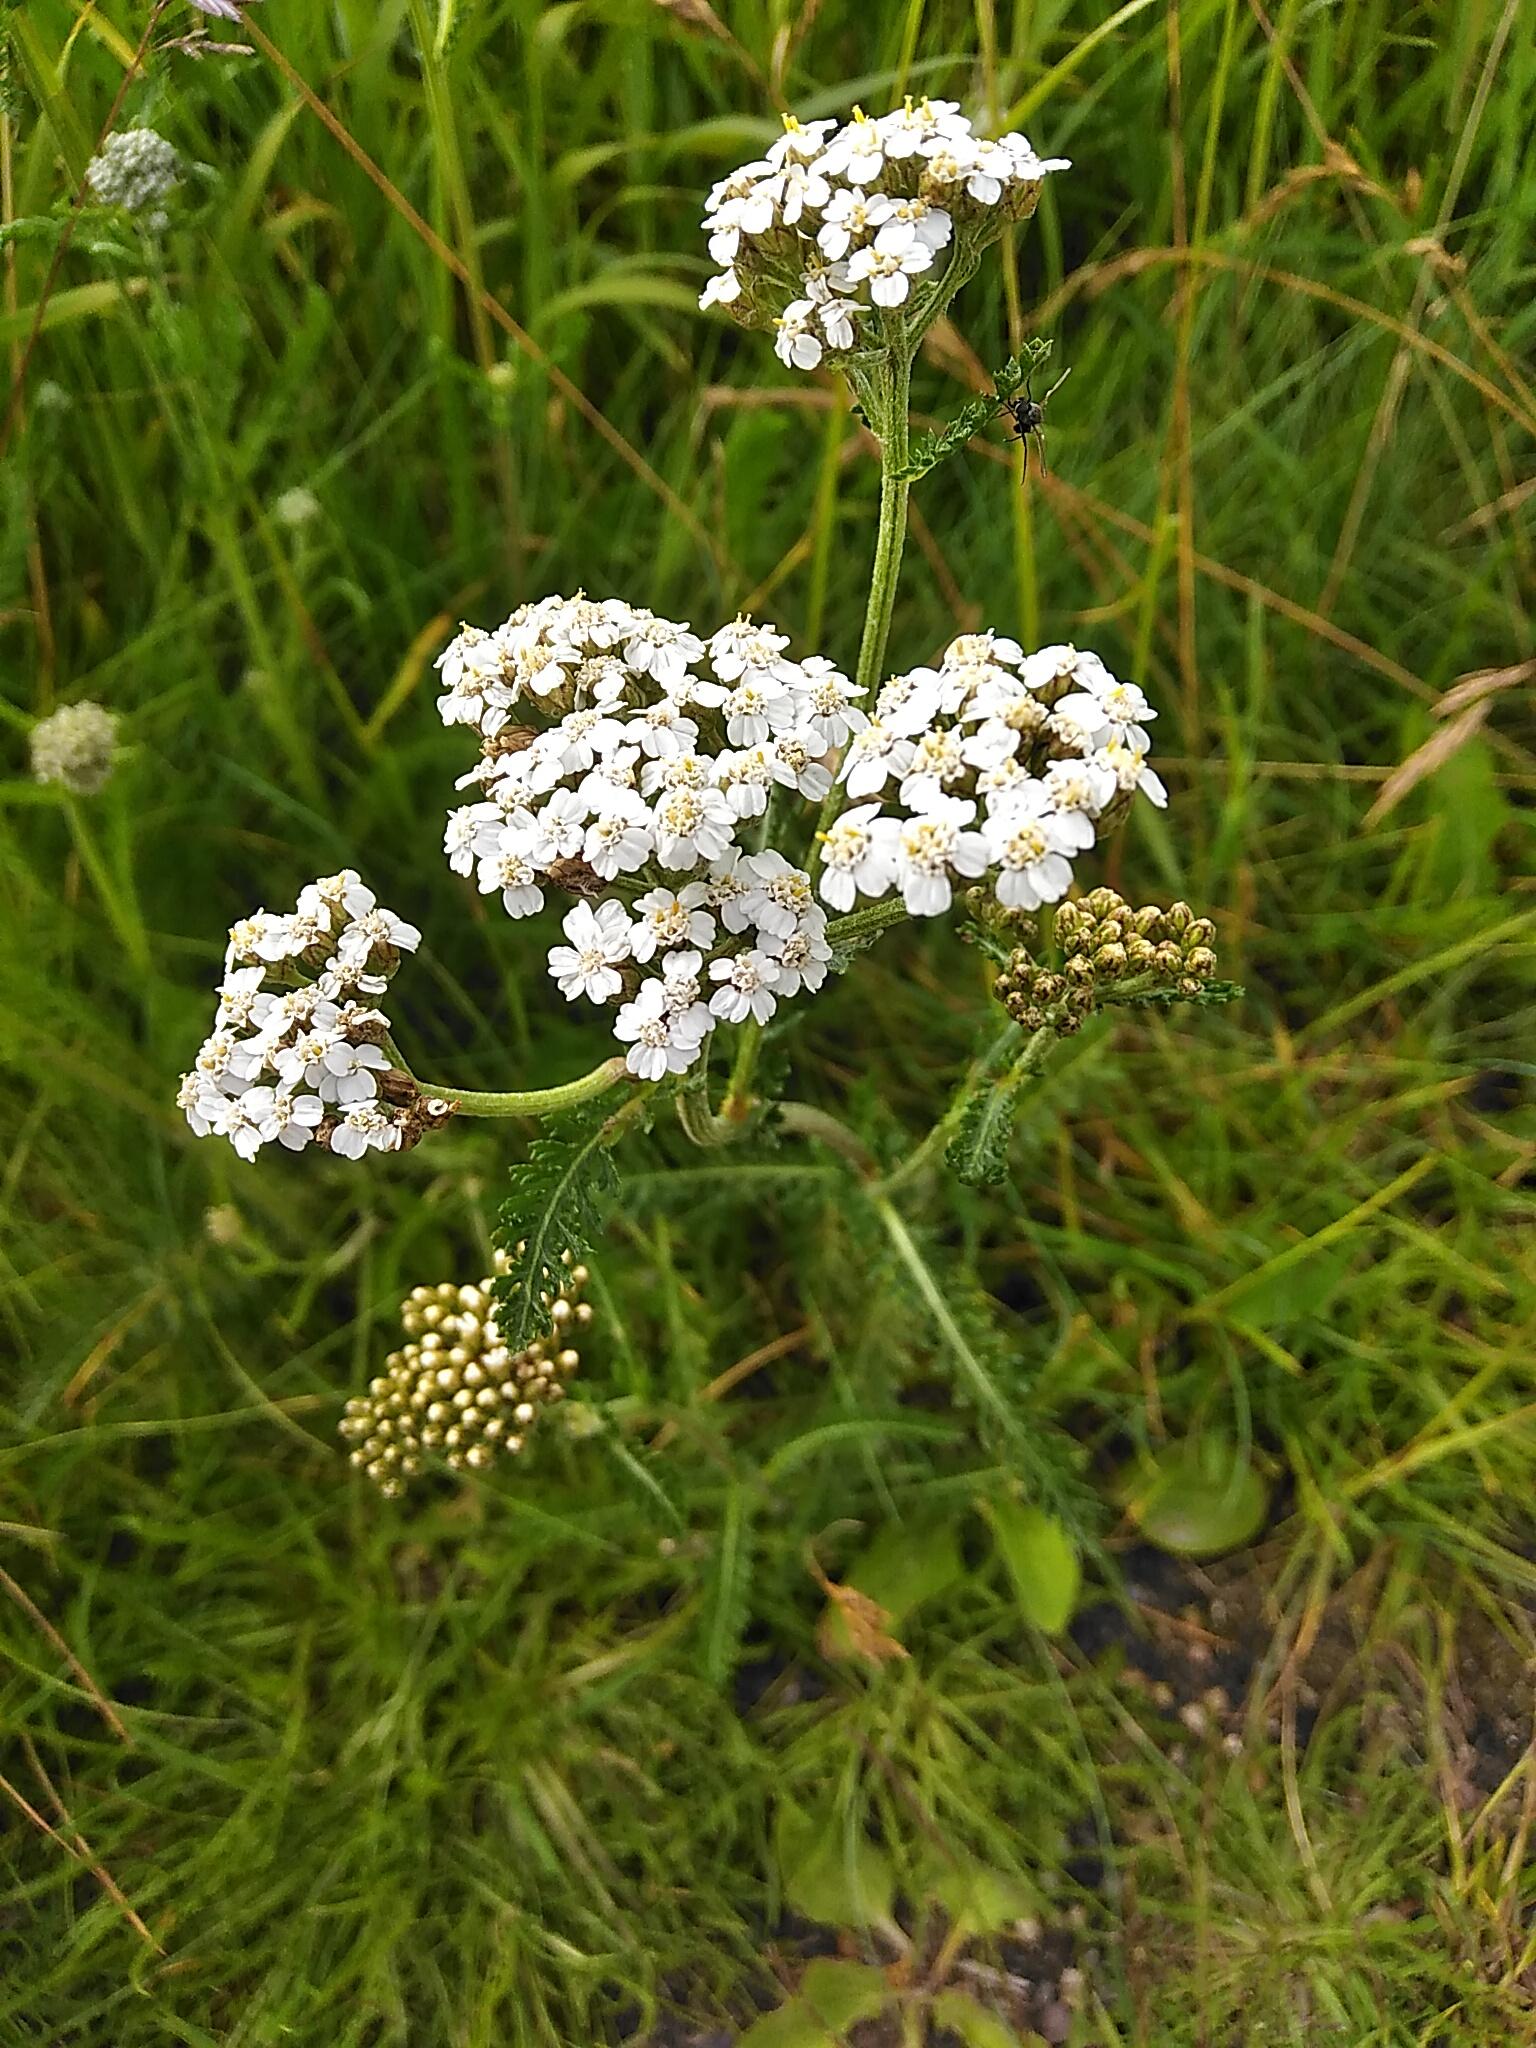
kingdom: Plantae
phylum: Tracheophyta
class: Magnoliopsida
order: Asterales
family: Asteraceae
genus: Achillea
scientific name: Achillea millefolium
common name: Almindelig røllike
